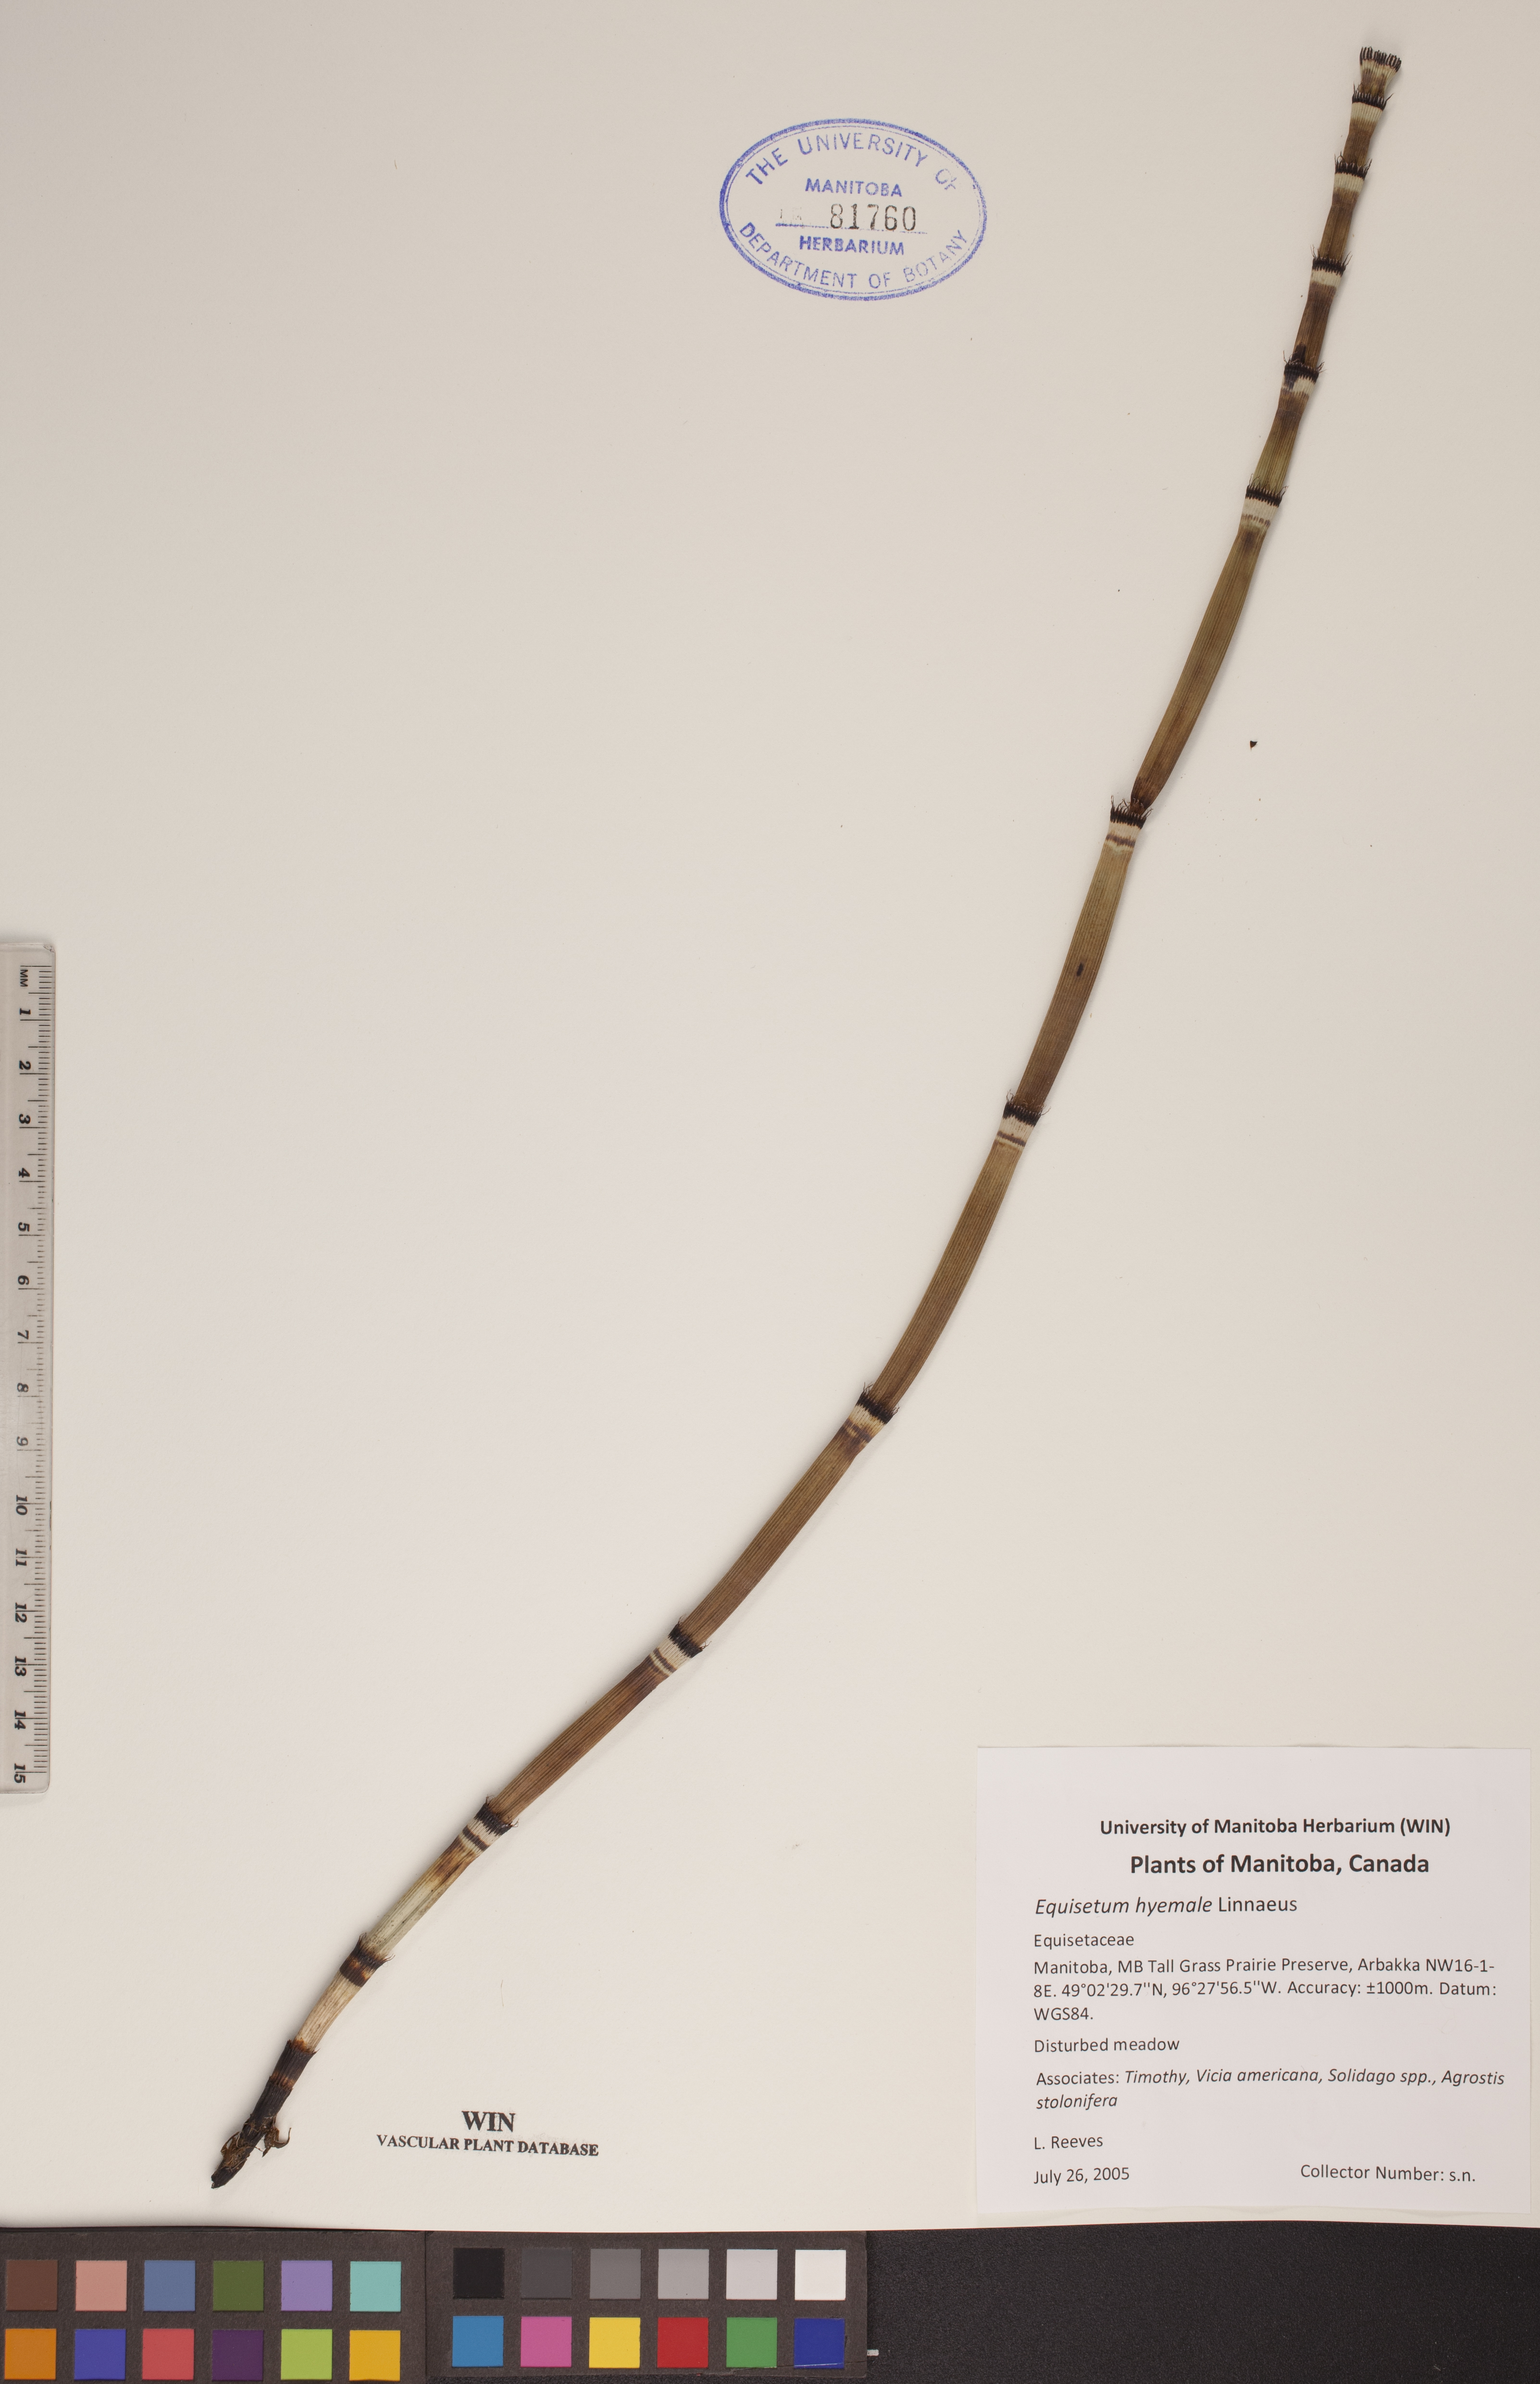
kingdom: Plantae
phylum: Tracheophyta
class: Polypodiopsida
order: Equisetales
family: Equisetaceae
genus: Equisetum
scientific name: Equisetum hyemale
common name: Rough horsetail
